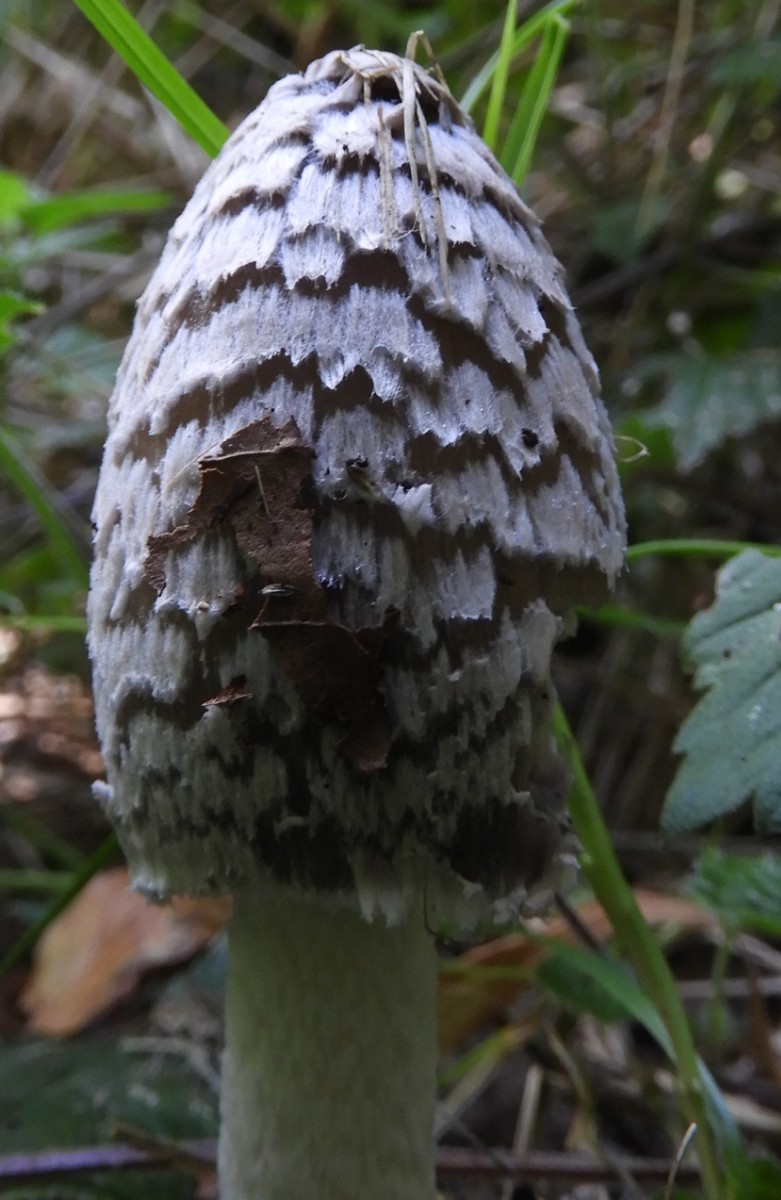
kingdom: Fungi
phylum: Basidiomycota
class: Agaricomycetes
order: Agaricales
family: Psathyrellaceae
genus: Coprinopsis
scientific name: Coprinopsis picacea
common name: skade-blækhat
